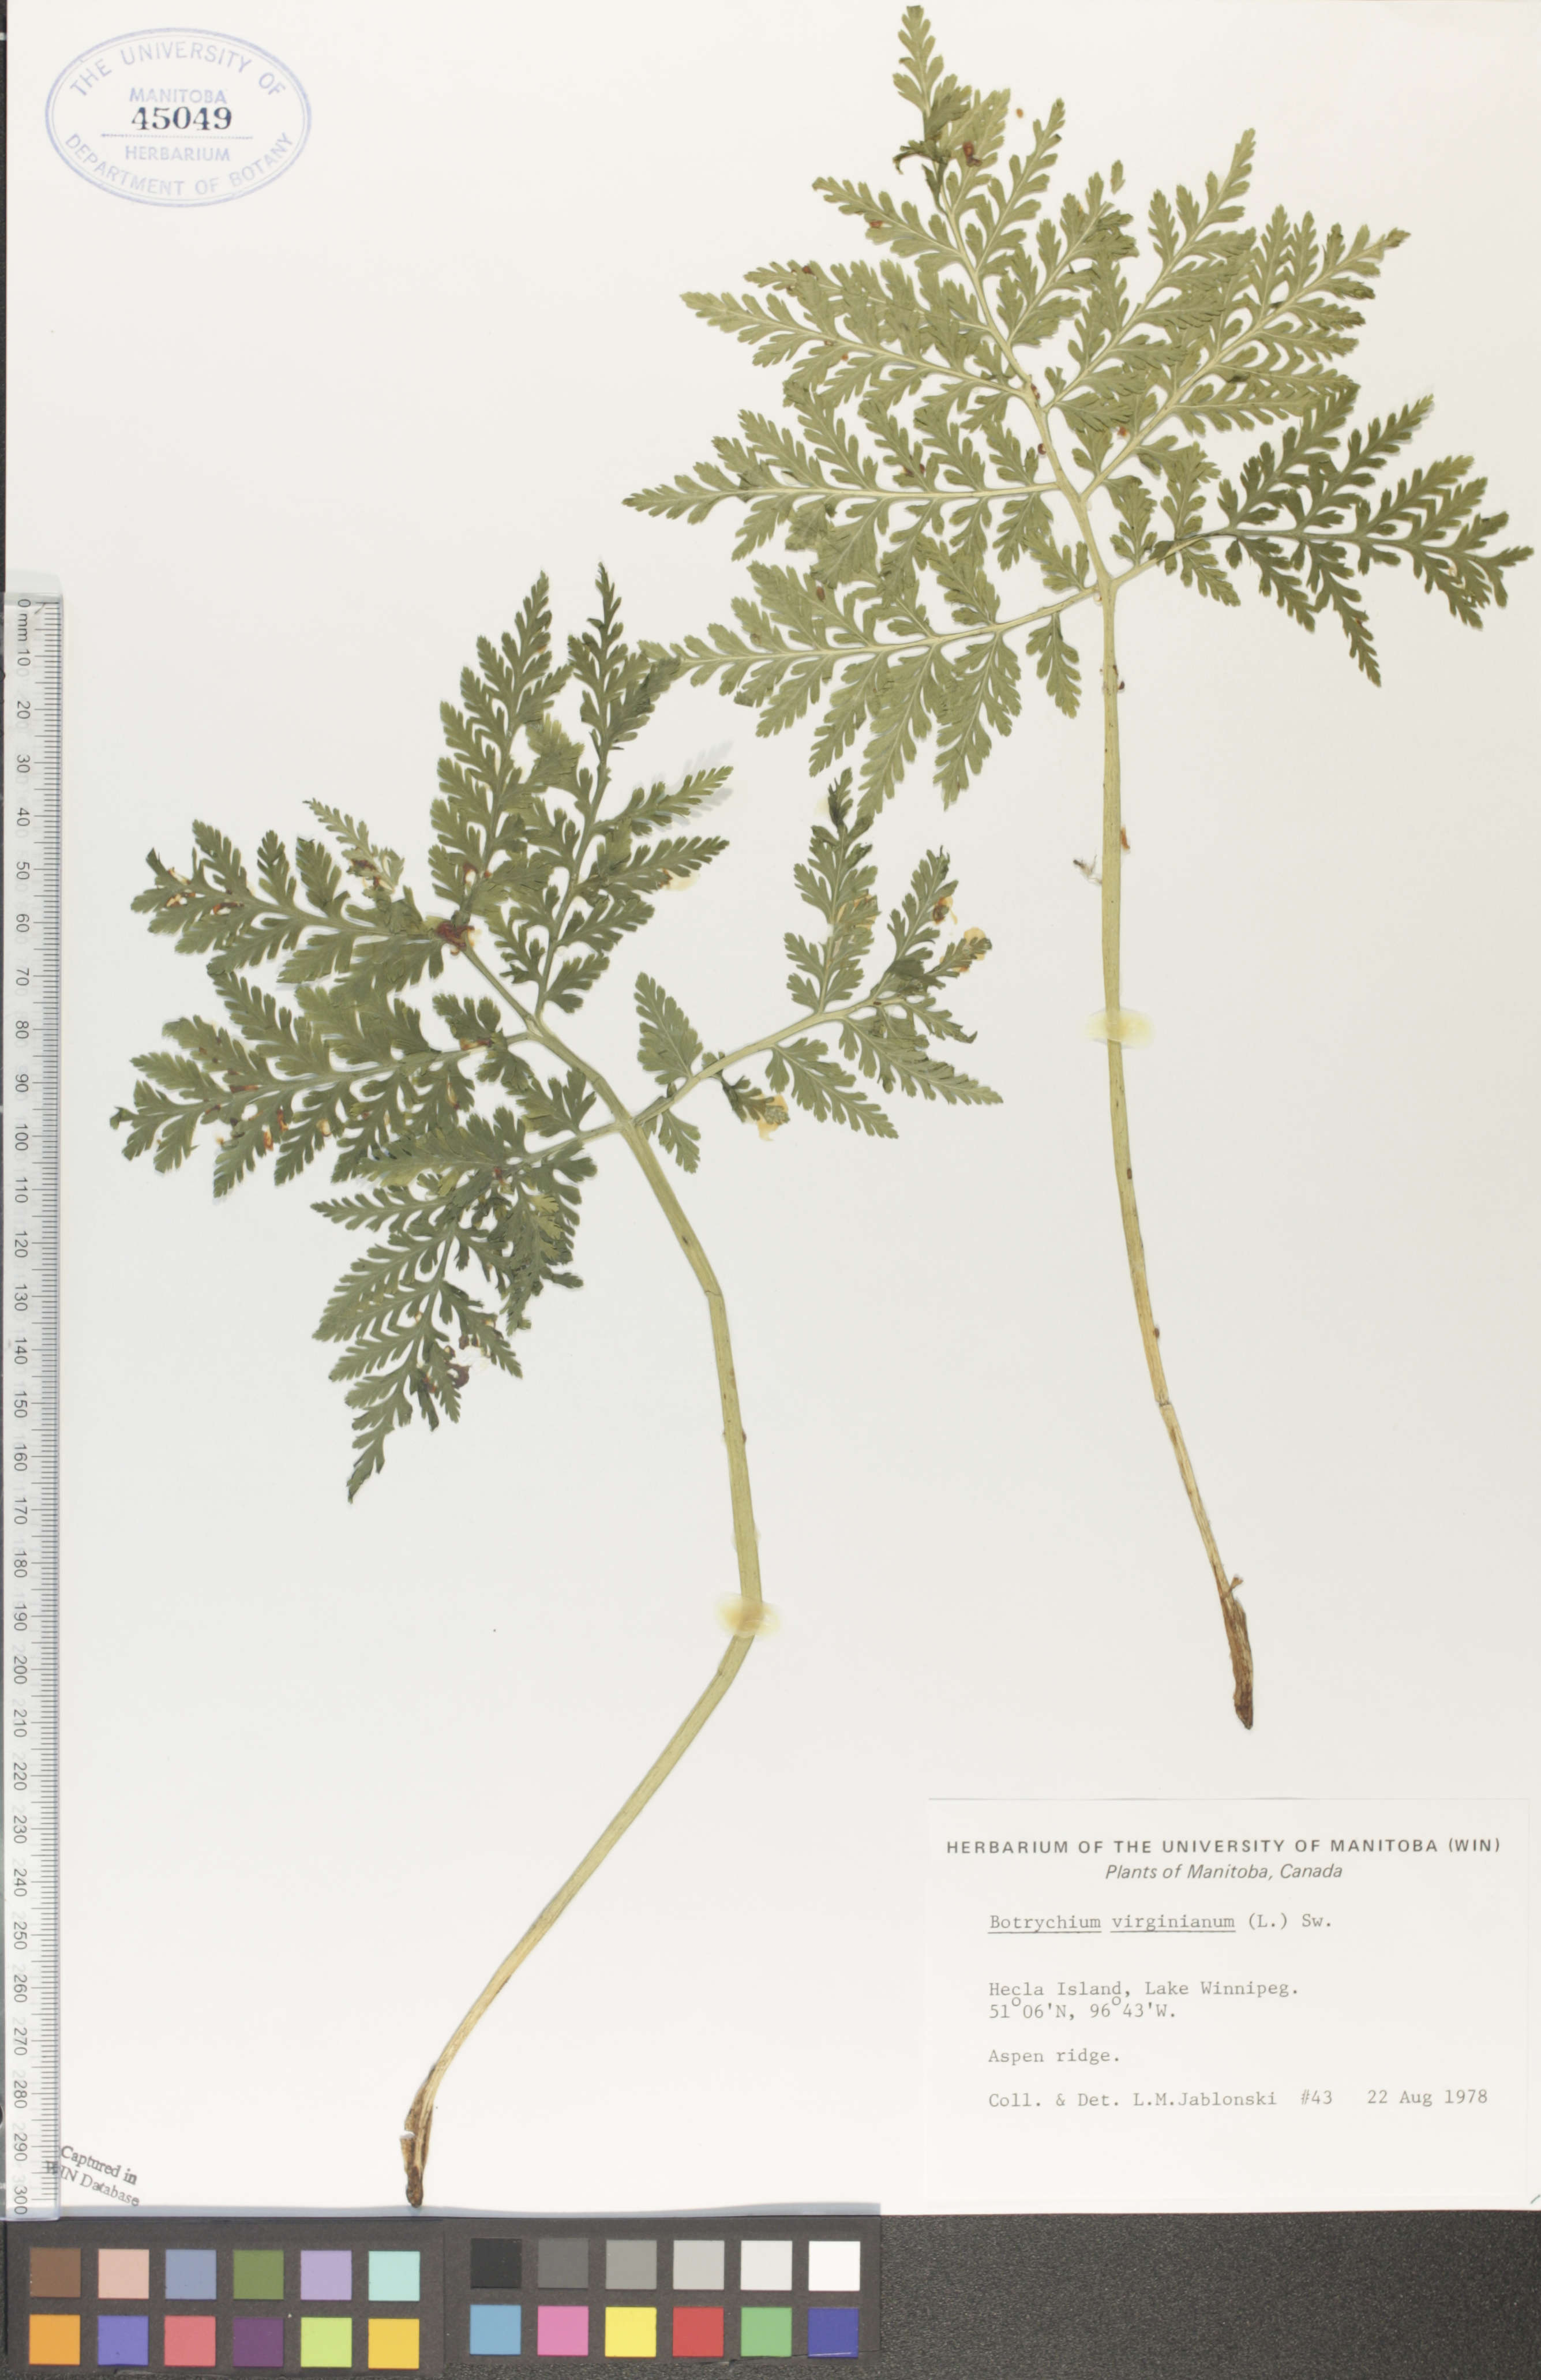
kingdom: Plantae
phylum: Tracheophyta
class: Polypodiopsida
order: Ophioglossales
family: Ophioglossaceae
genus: Botrypus
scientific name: Botrypus virginianus
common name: Common grapefern
